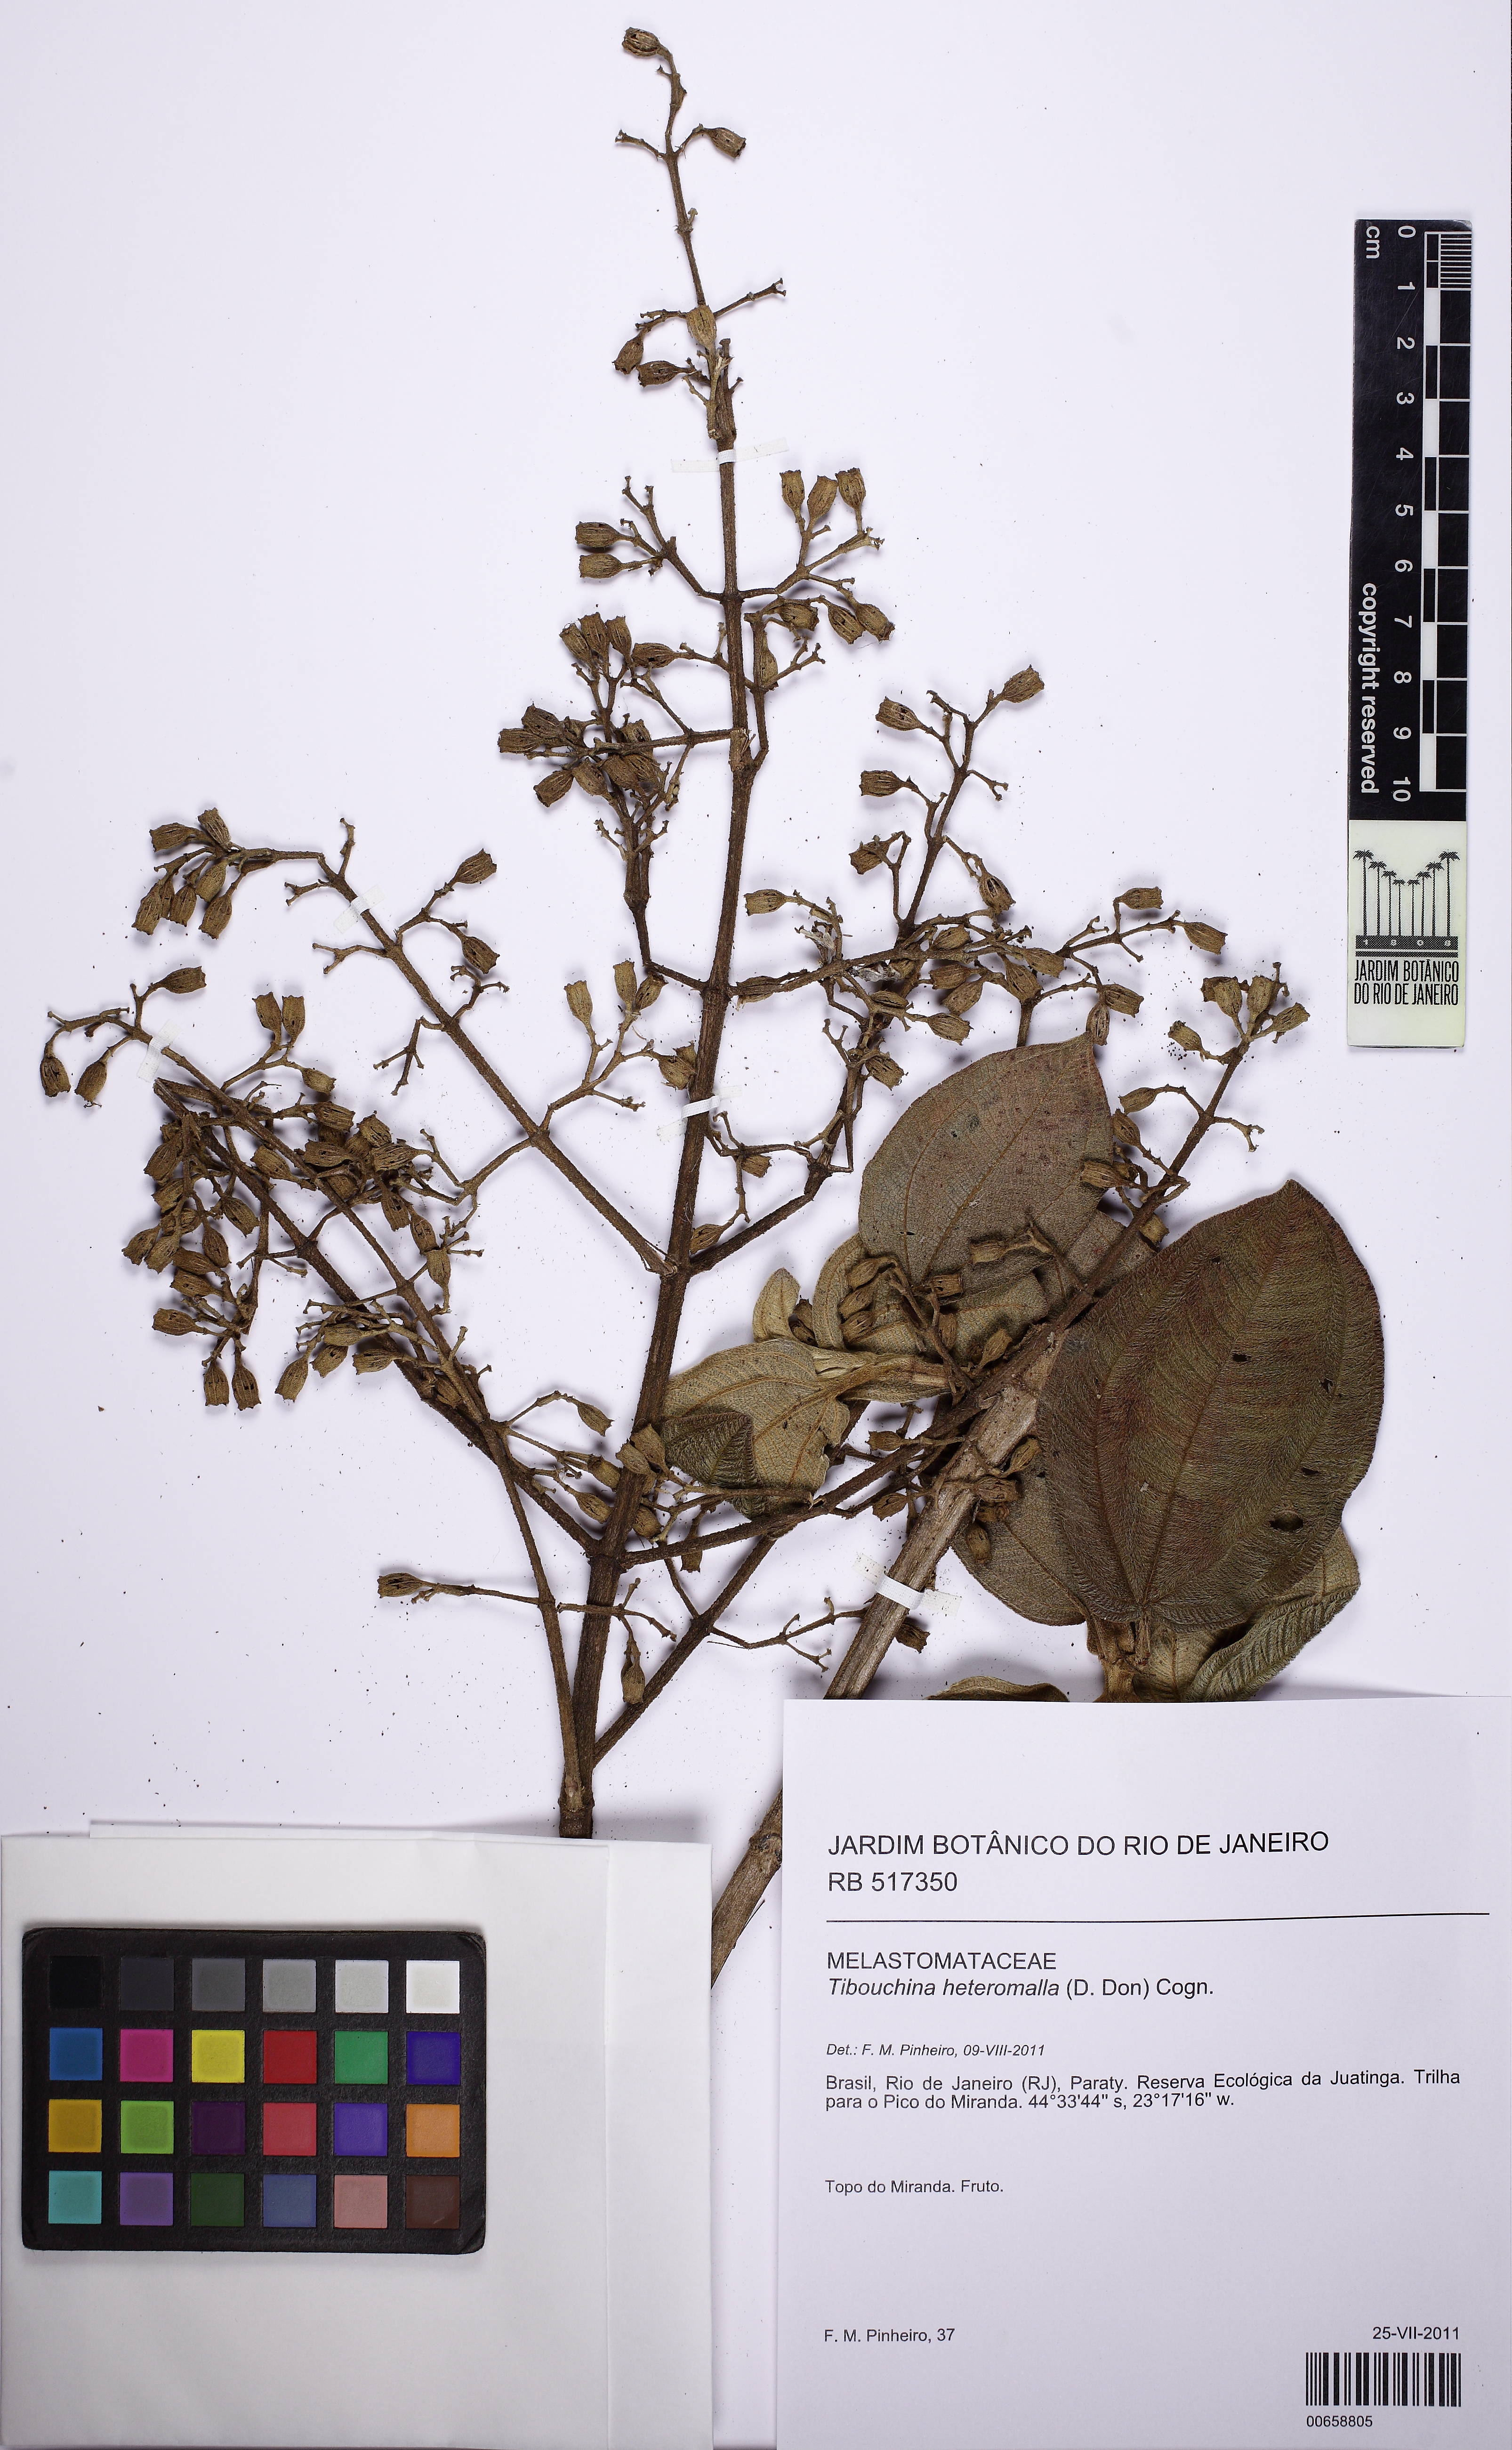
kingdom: Plantae
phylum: Tracheophyta
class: Magnoliopsida
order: Myrtales
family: Melastomataceae
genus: Pleroma
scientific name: Pleroma heteromallum
